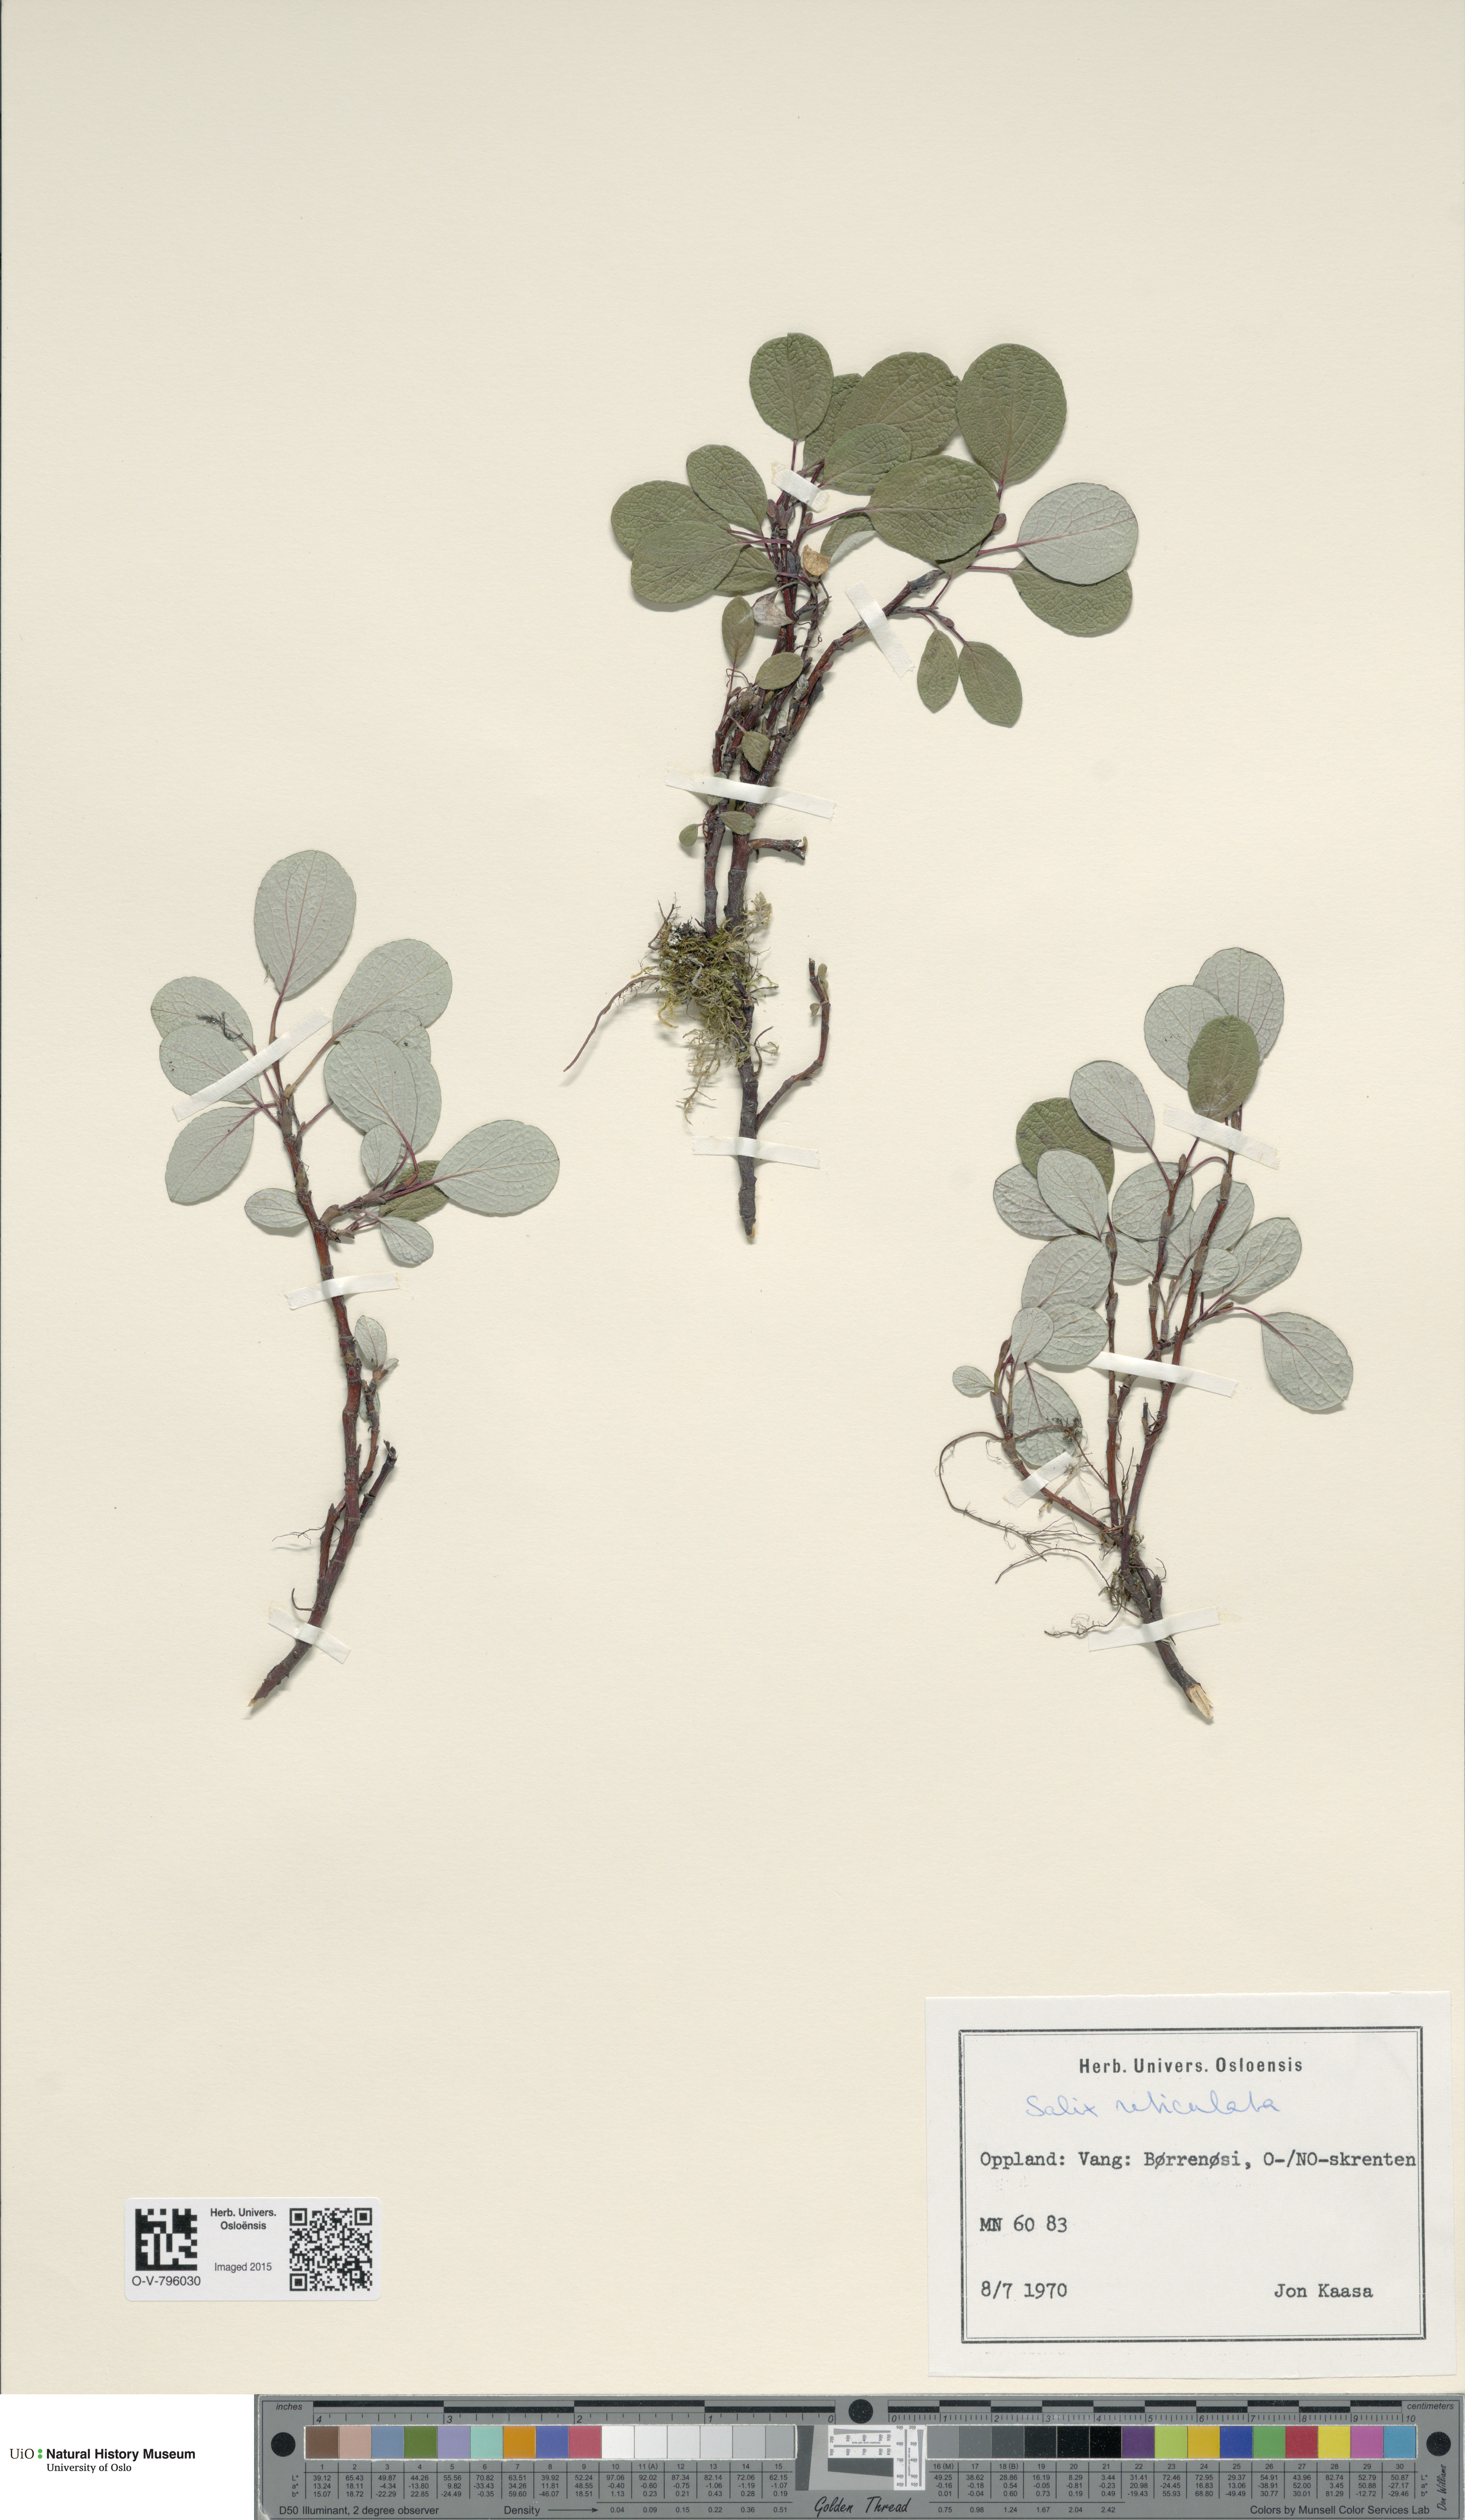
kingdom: Plantae
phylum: Tracheophyta
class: Magnoliopsida
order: Malpighiales
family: Salicaceae
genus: Salix
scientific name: Salix reticulata
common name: Net-leaved willow
